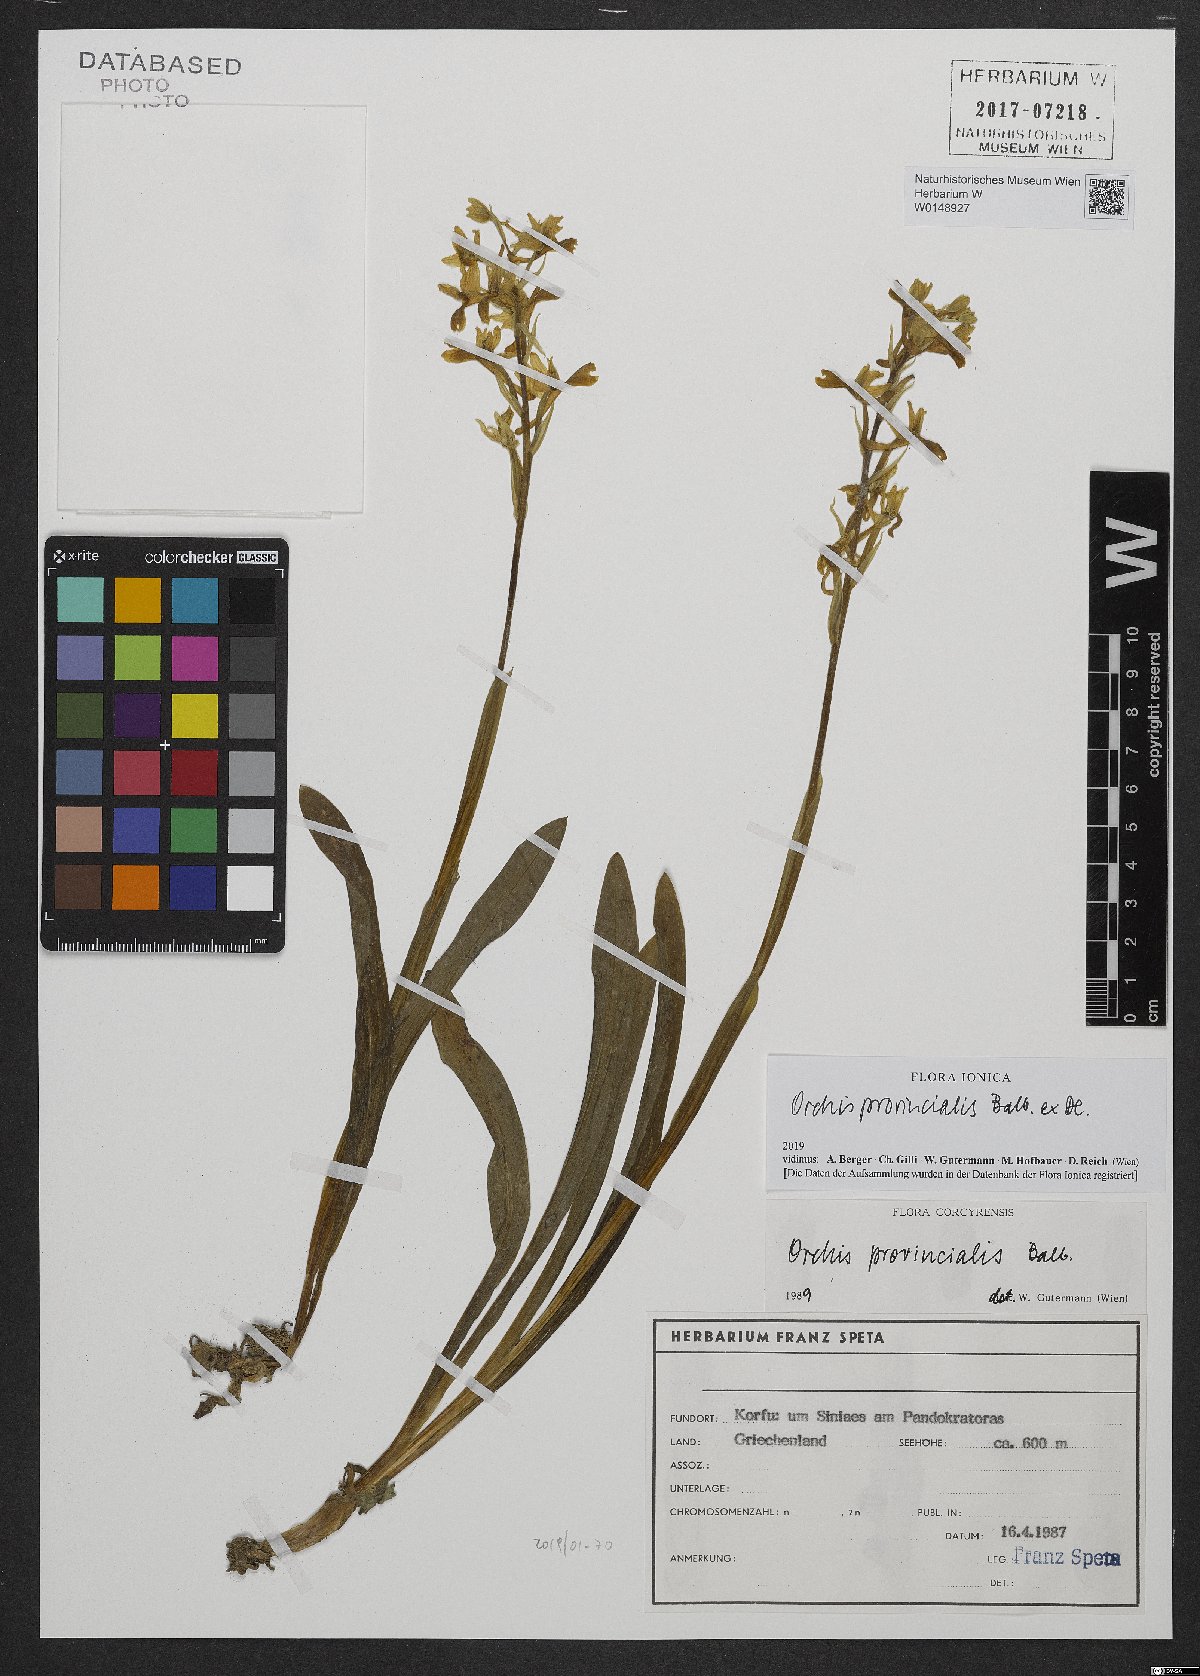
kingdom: Plantae
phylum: Tracheophyta
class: Liliopsida
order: Asparagales
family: Orchidaceae
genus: Orchis
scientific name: Orchis provincialis
